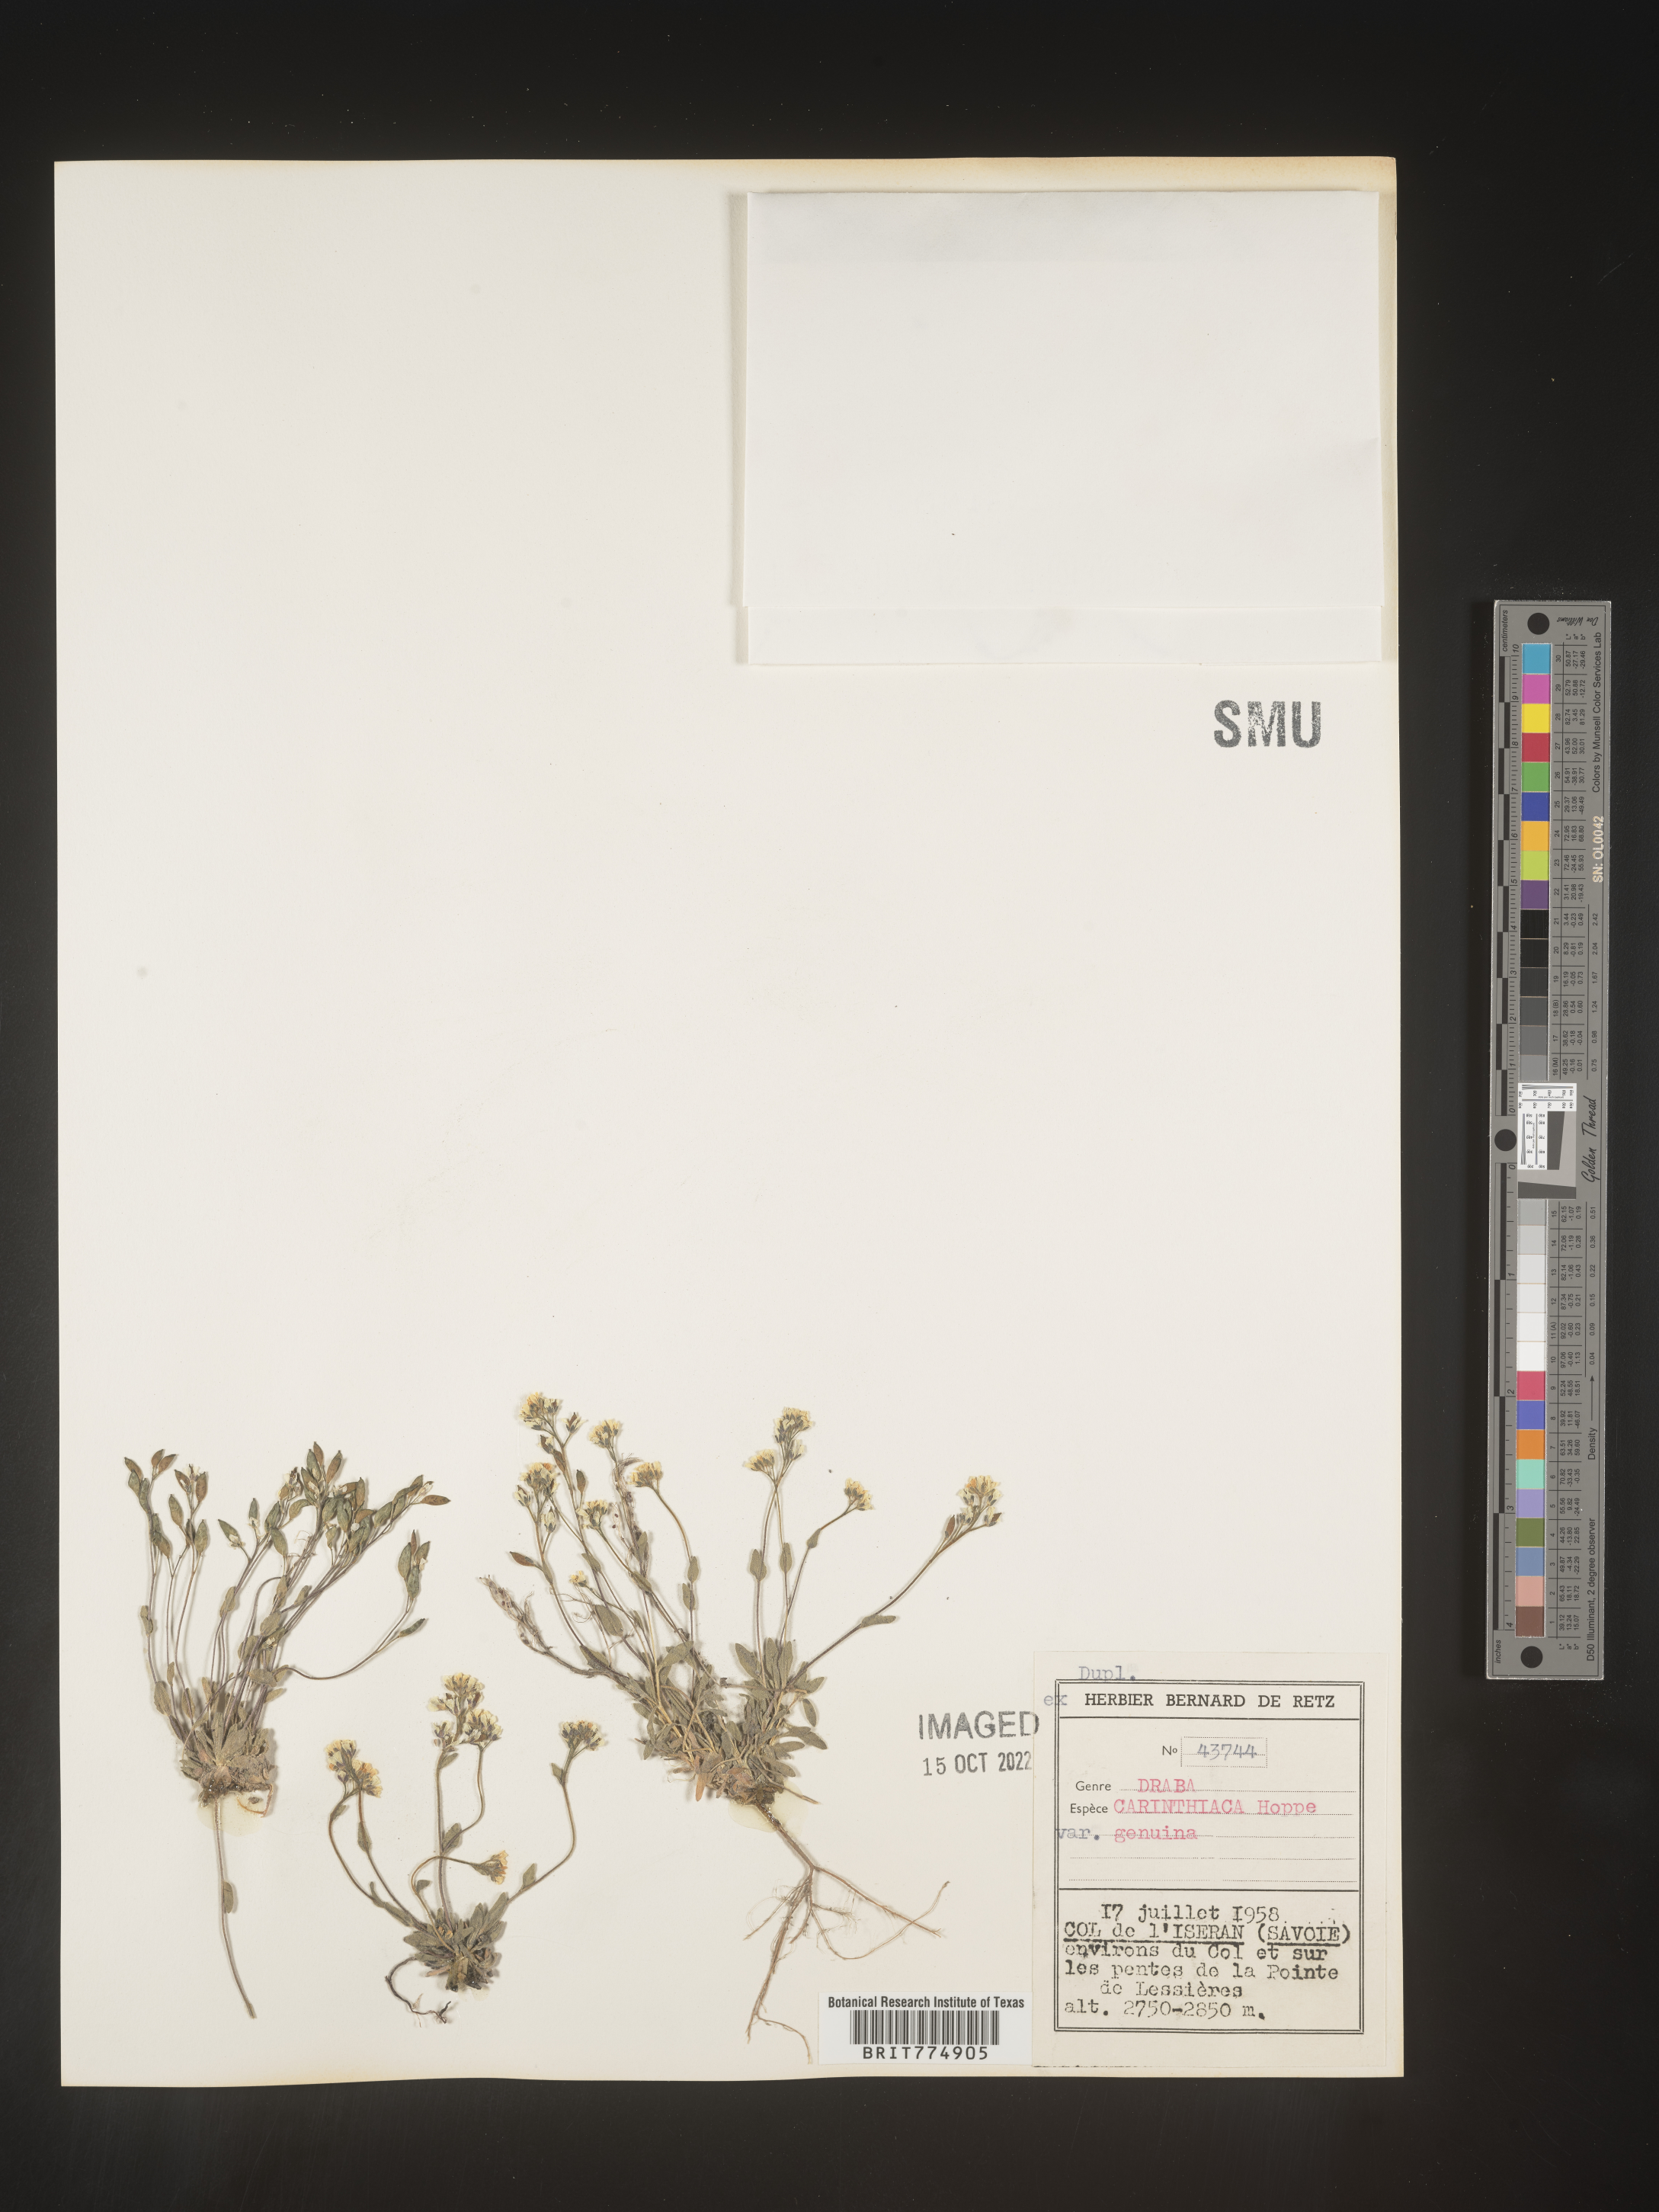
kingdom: Plantae
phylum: Tracheophyta
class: Magnoliopsida
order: Brassicales
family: Brassicaceae
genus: Draba
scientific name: Draba
